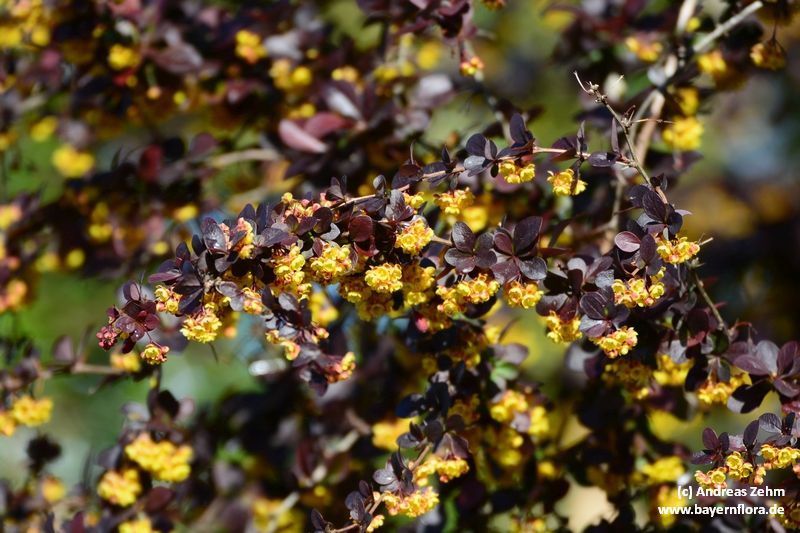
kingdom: Plantae
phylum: Tracheophyta
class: Magnoliopsida
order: Ranunculales
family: Berberidaceae
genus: Berberis
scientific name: Berberis thunbergii
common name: Japanese barberry
